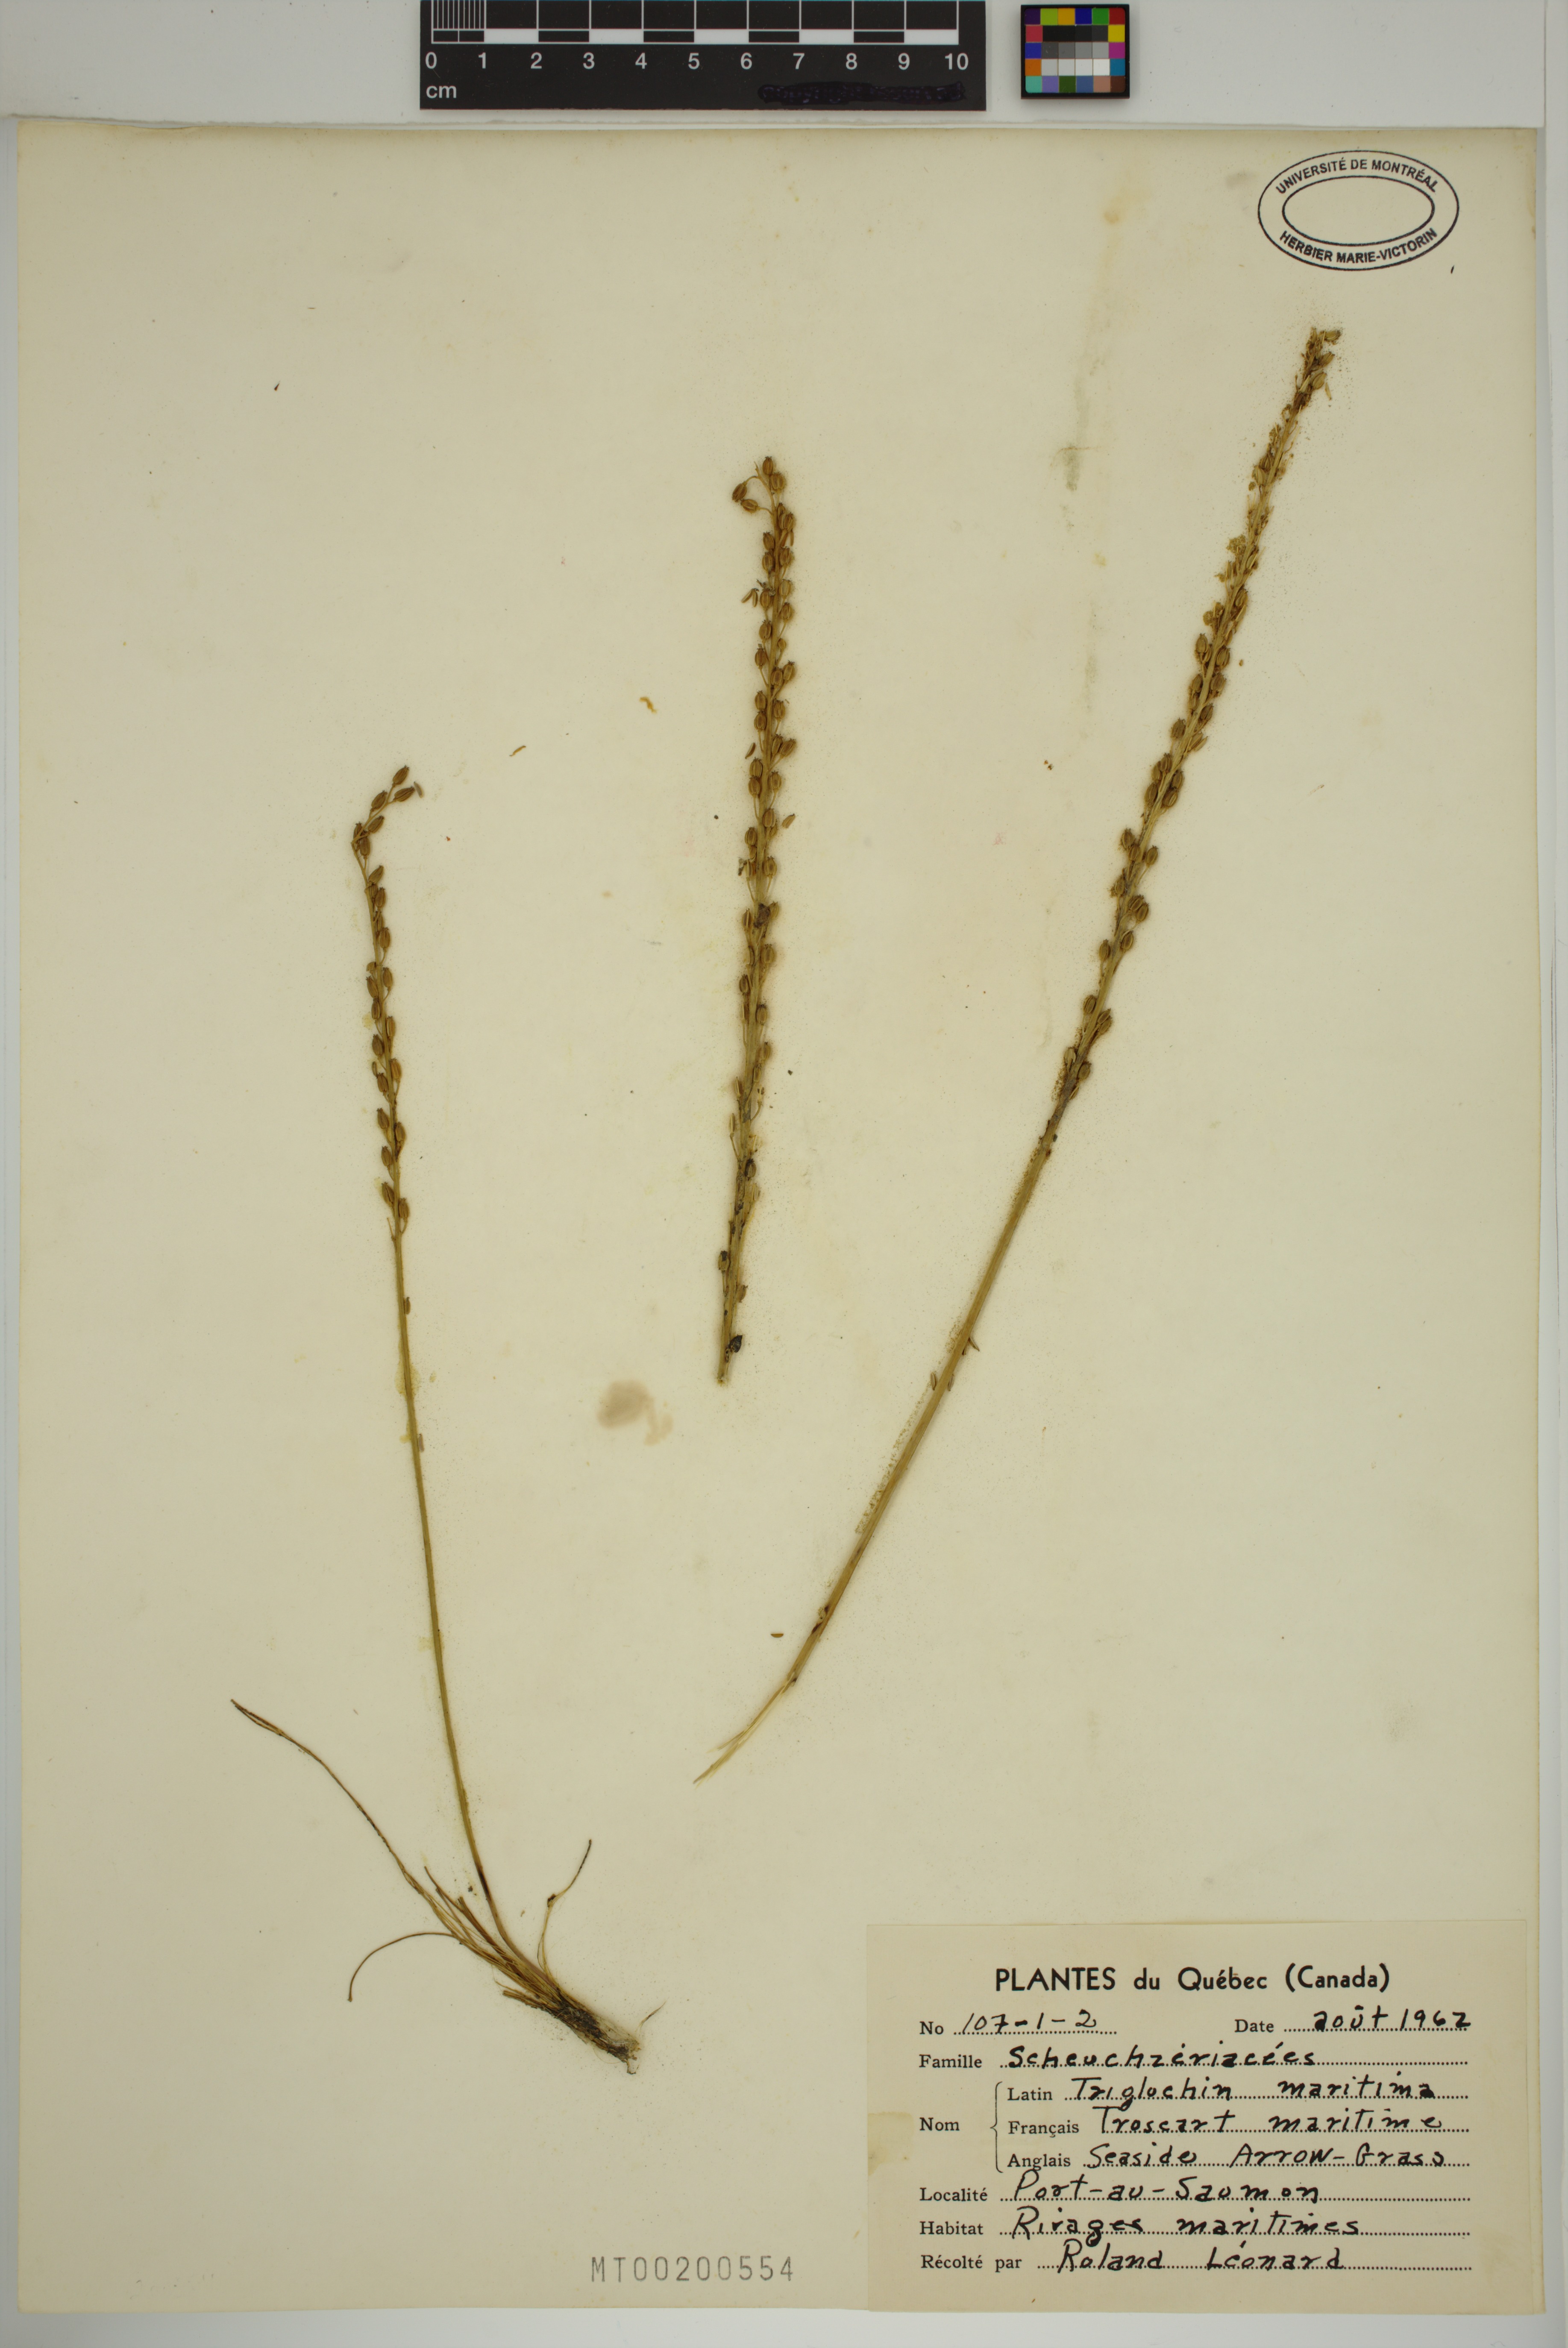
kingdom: Plantae
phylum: Tracheophyta
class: Liliopsida
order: Alismatales
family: Juncaginaceae
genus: Triglochin
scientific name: Triglochin maritima
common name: Sea arrowgrass
